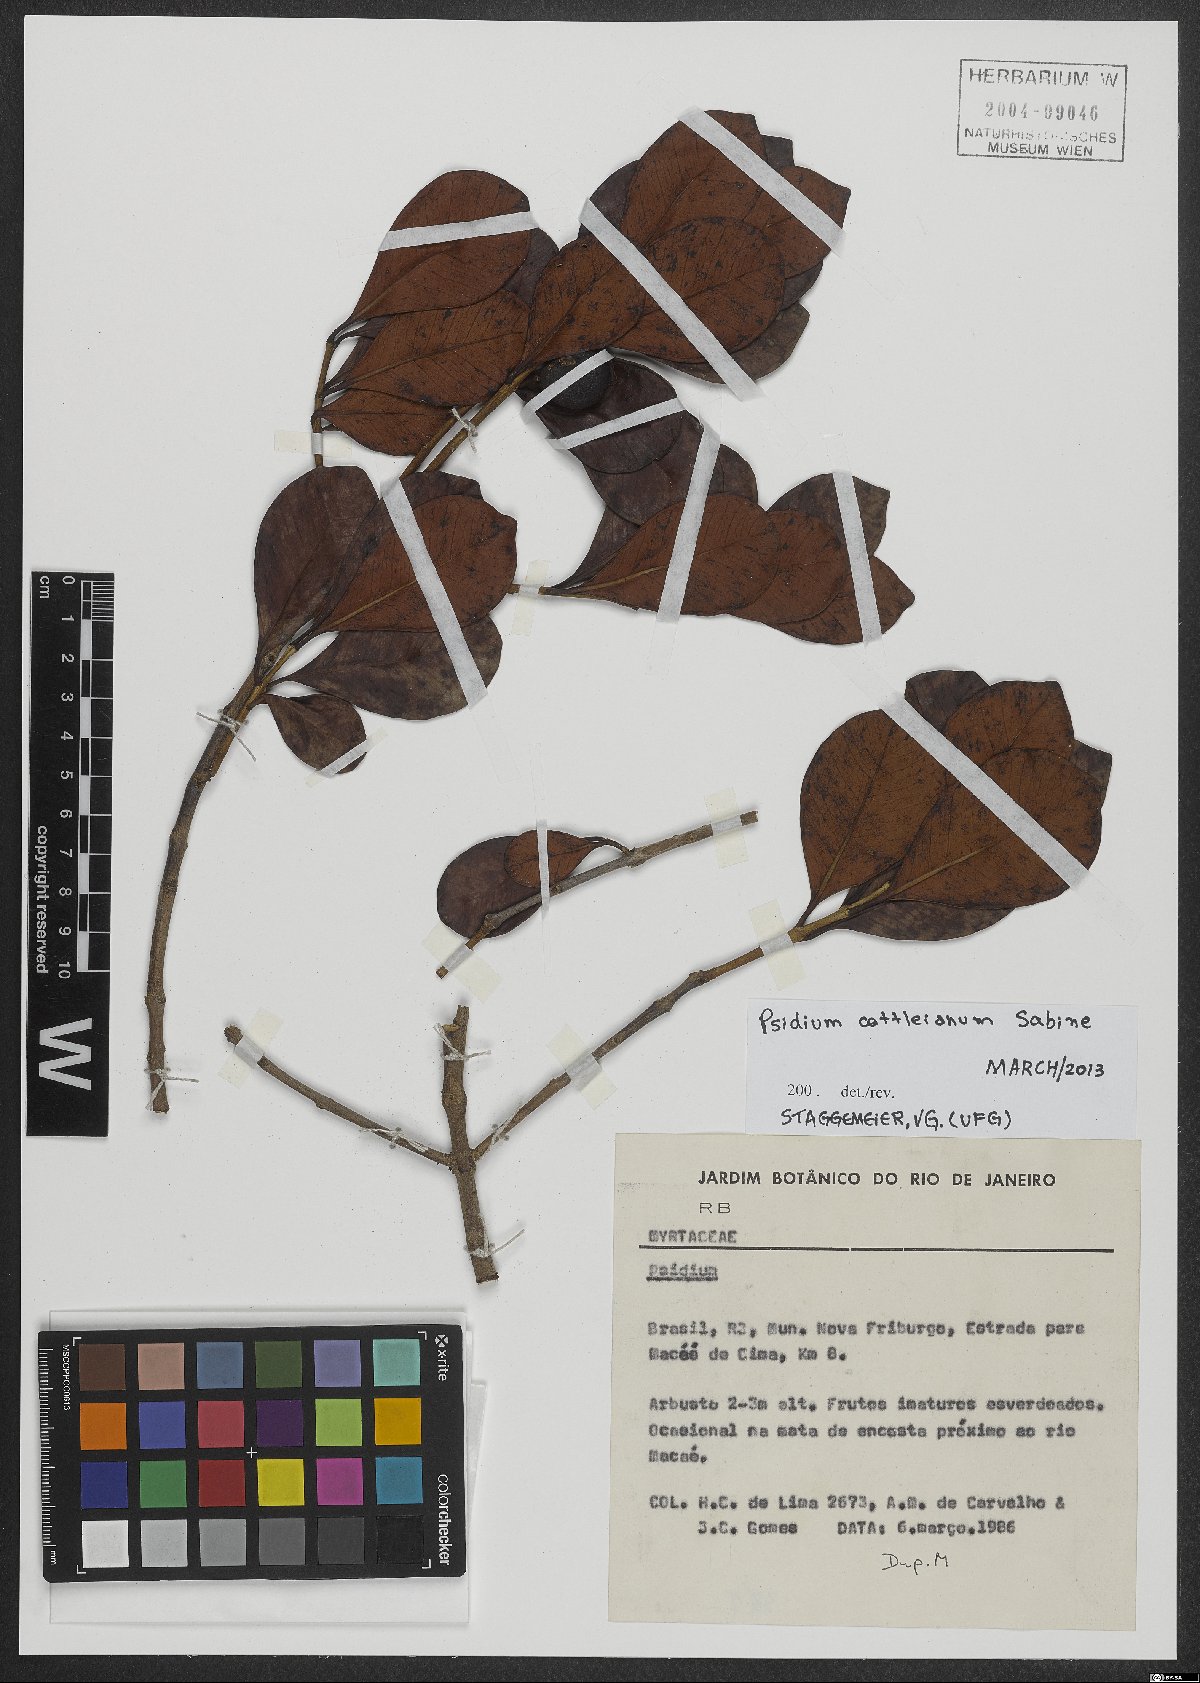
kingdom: Plantae
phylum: Tracheophyta
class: Magnoliopsida
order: Myrtales
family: Myrtaceae
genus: Psidium
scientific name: Psidium cattleianum
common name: Strawberry guava
